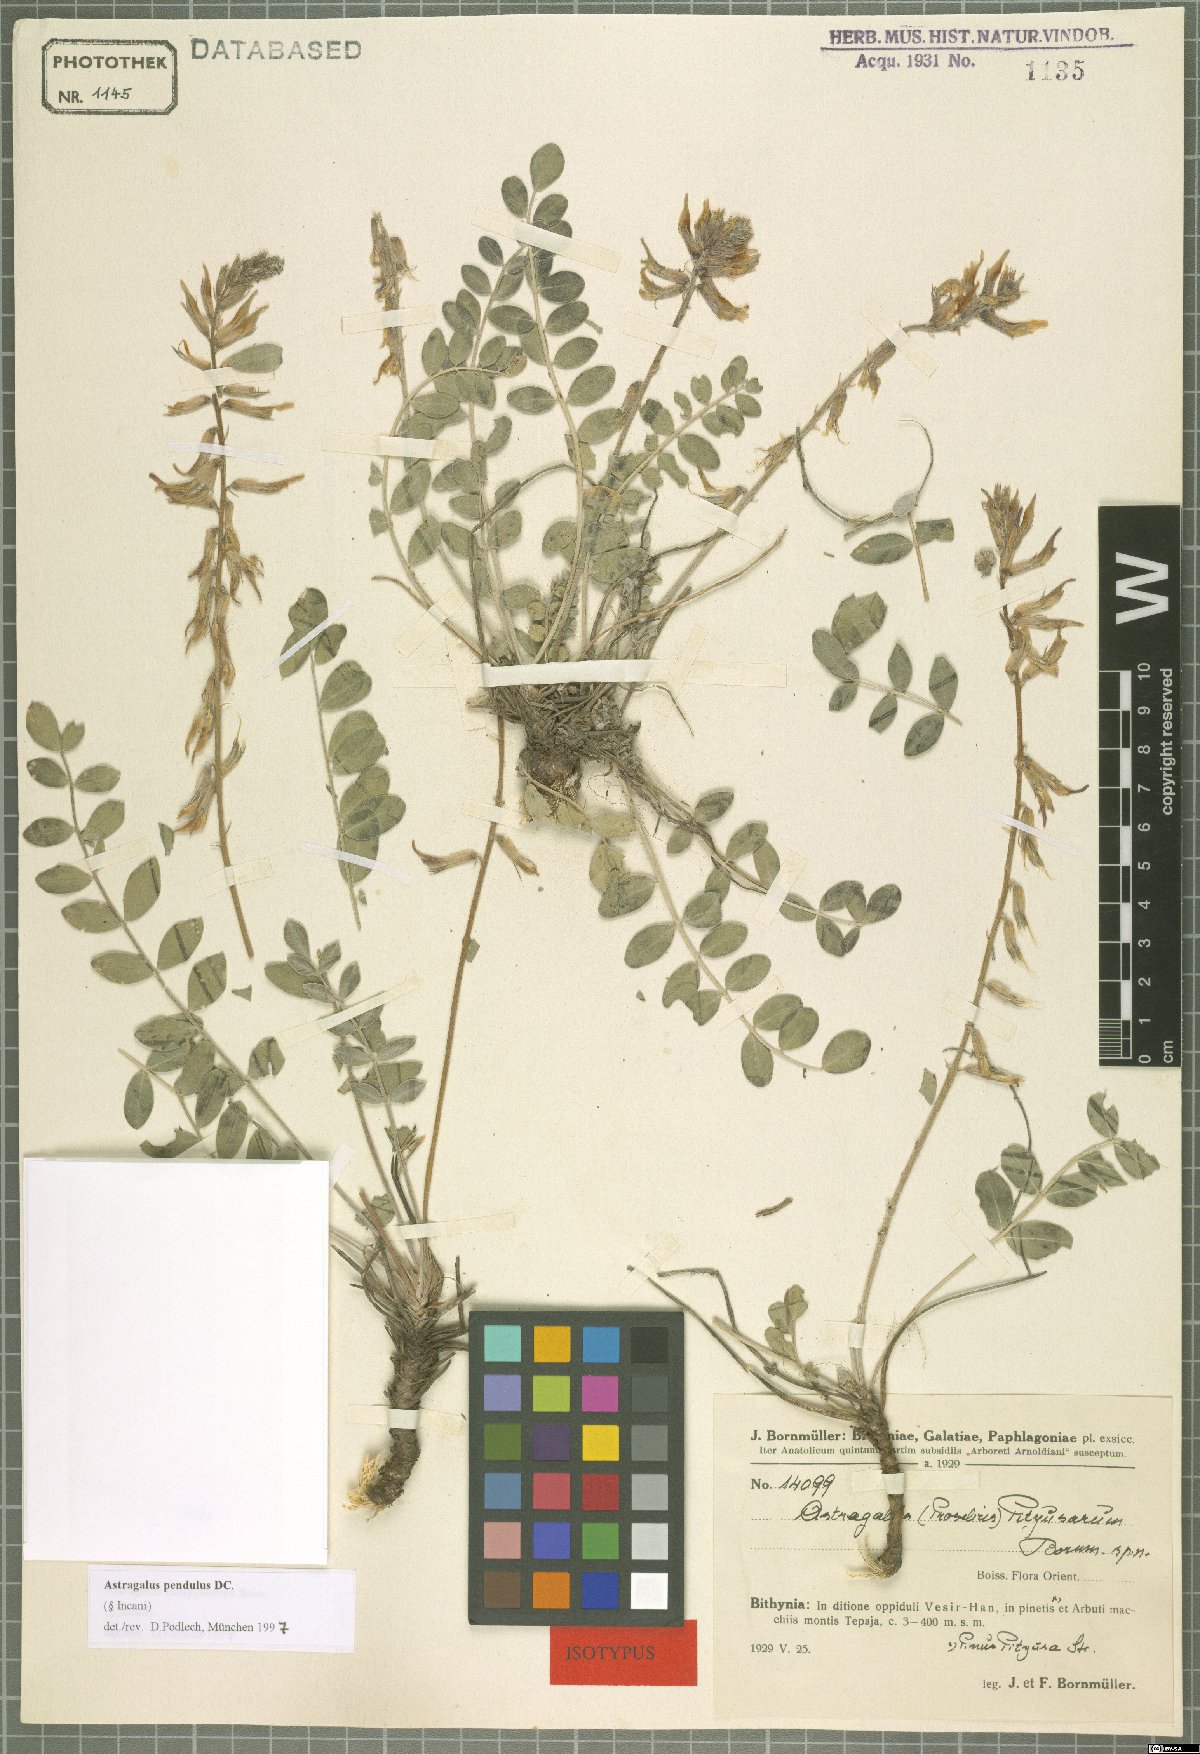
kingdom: Plantae
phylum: Tracheophyta
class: Magnoliopsida
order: Fabales
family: Fabaceae
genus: Astragalus
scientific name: Astragalus pendulus
